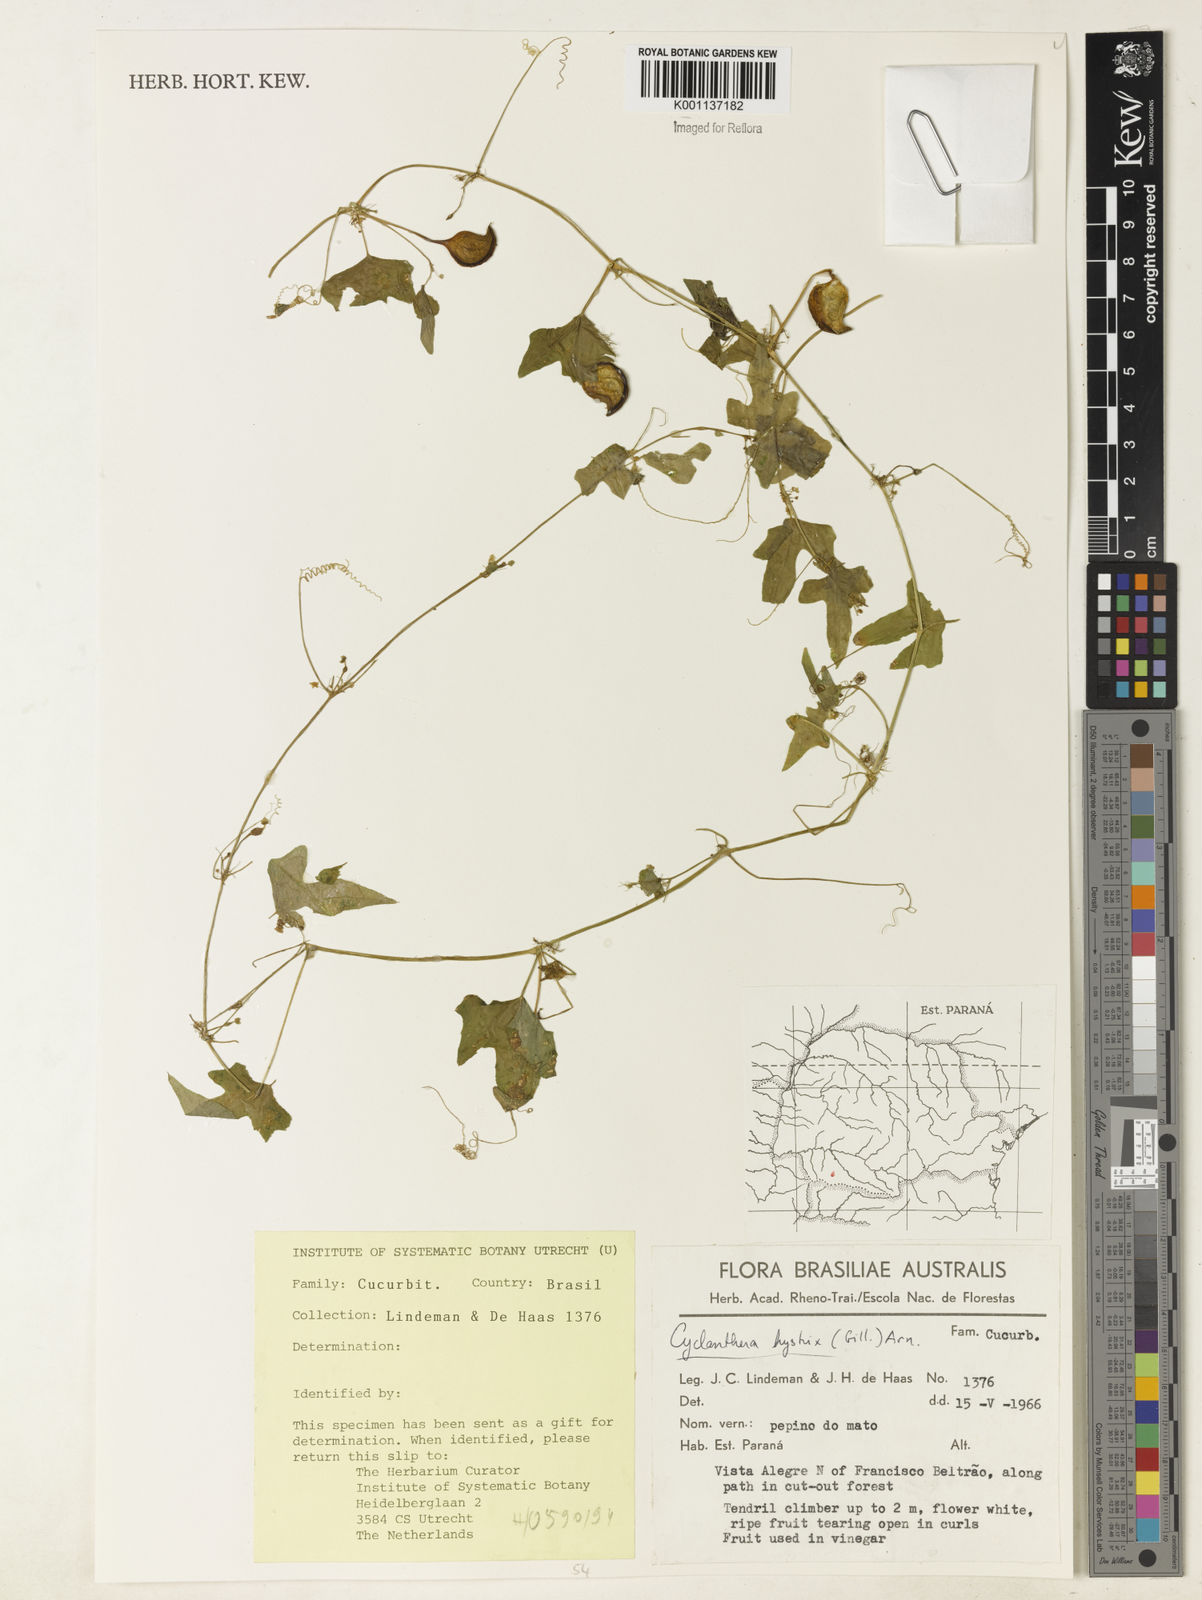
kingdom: Plantae
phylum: Tracheophyta
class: Magnoliopsida
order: Cucurbitales
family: Cucurbitaceae
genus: Cyclanthera
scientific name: Cyclanthera hystrix
